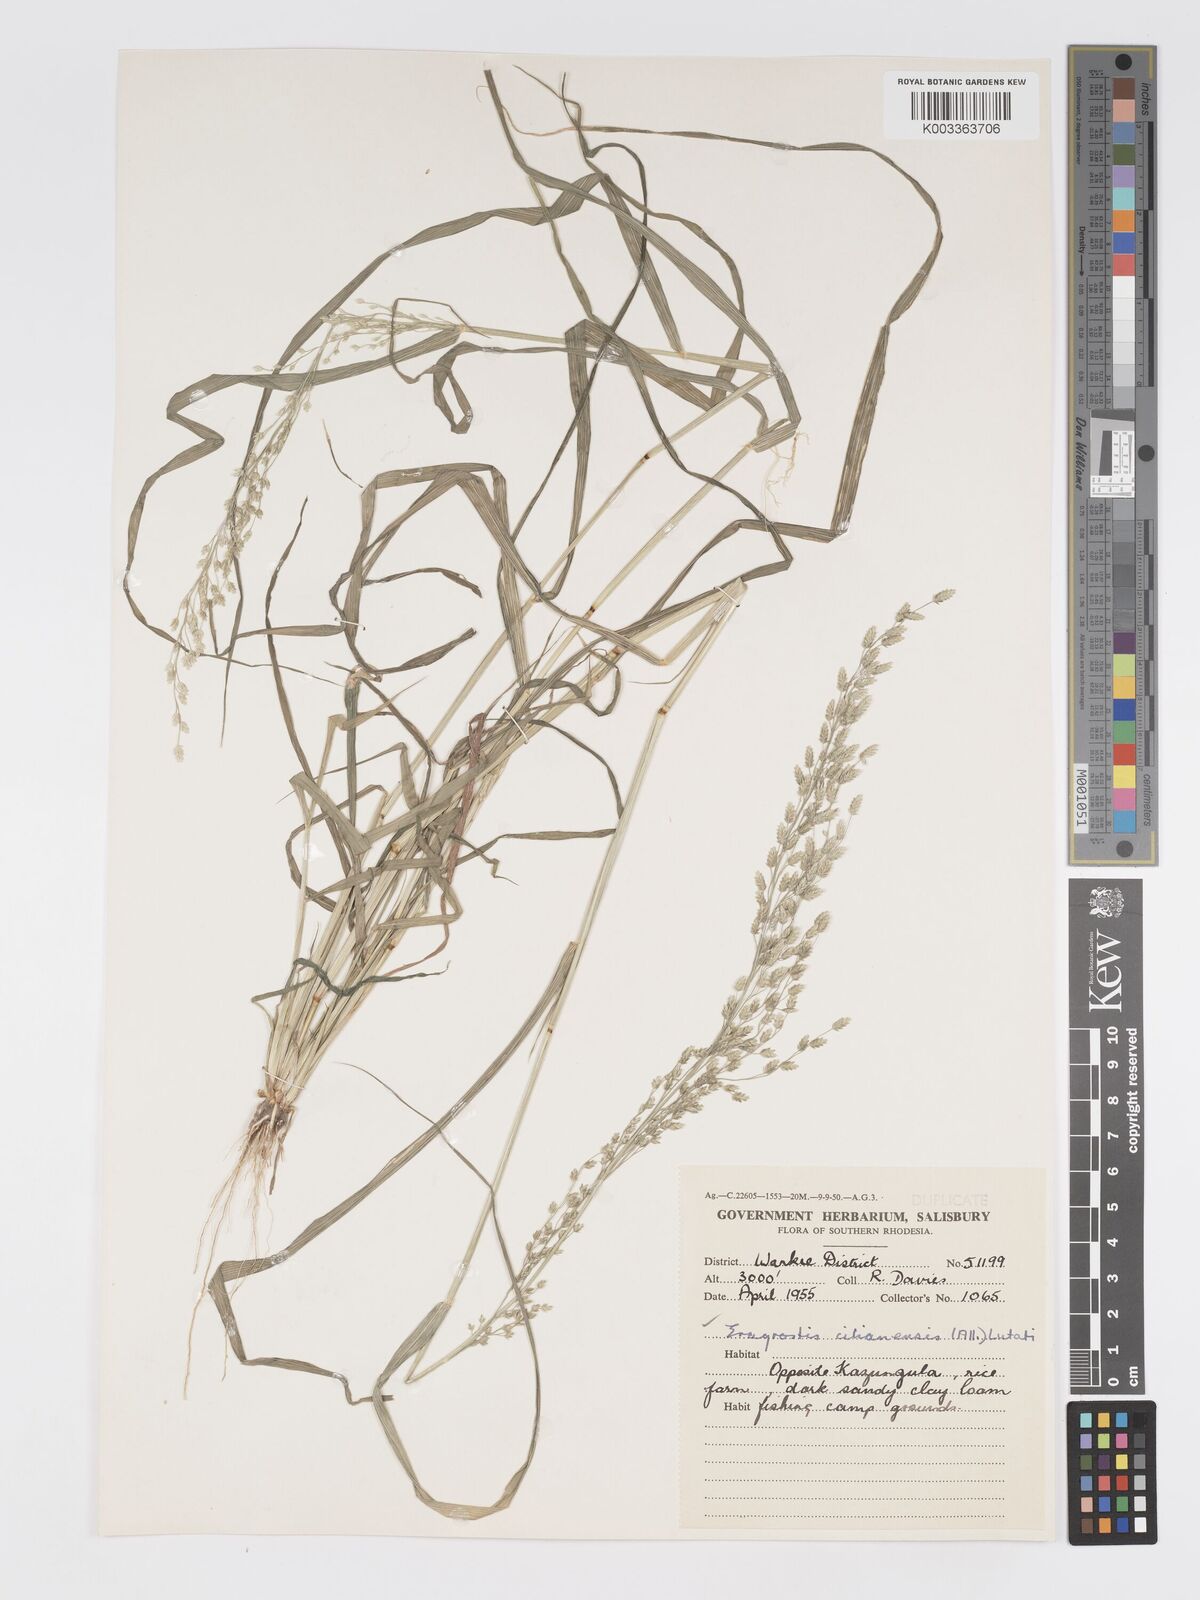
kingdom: Plantae
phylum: Tracheophyta
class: Liliopsida
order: Poales
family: Poaceae
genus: Eragrostis
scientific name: Eragrostis cilianensis
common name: Stinkgrass
